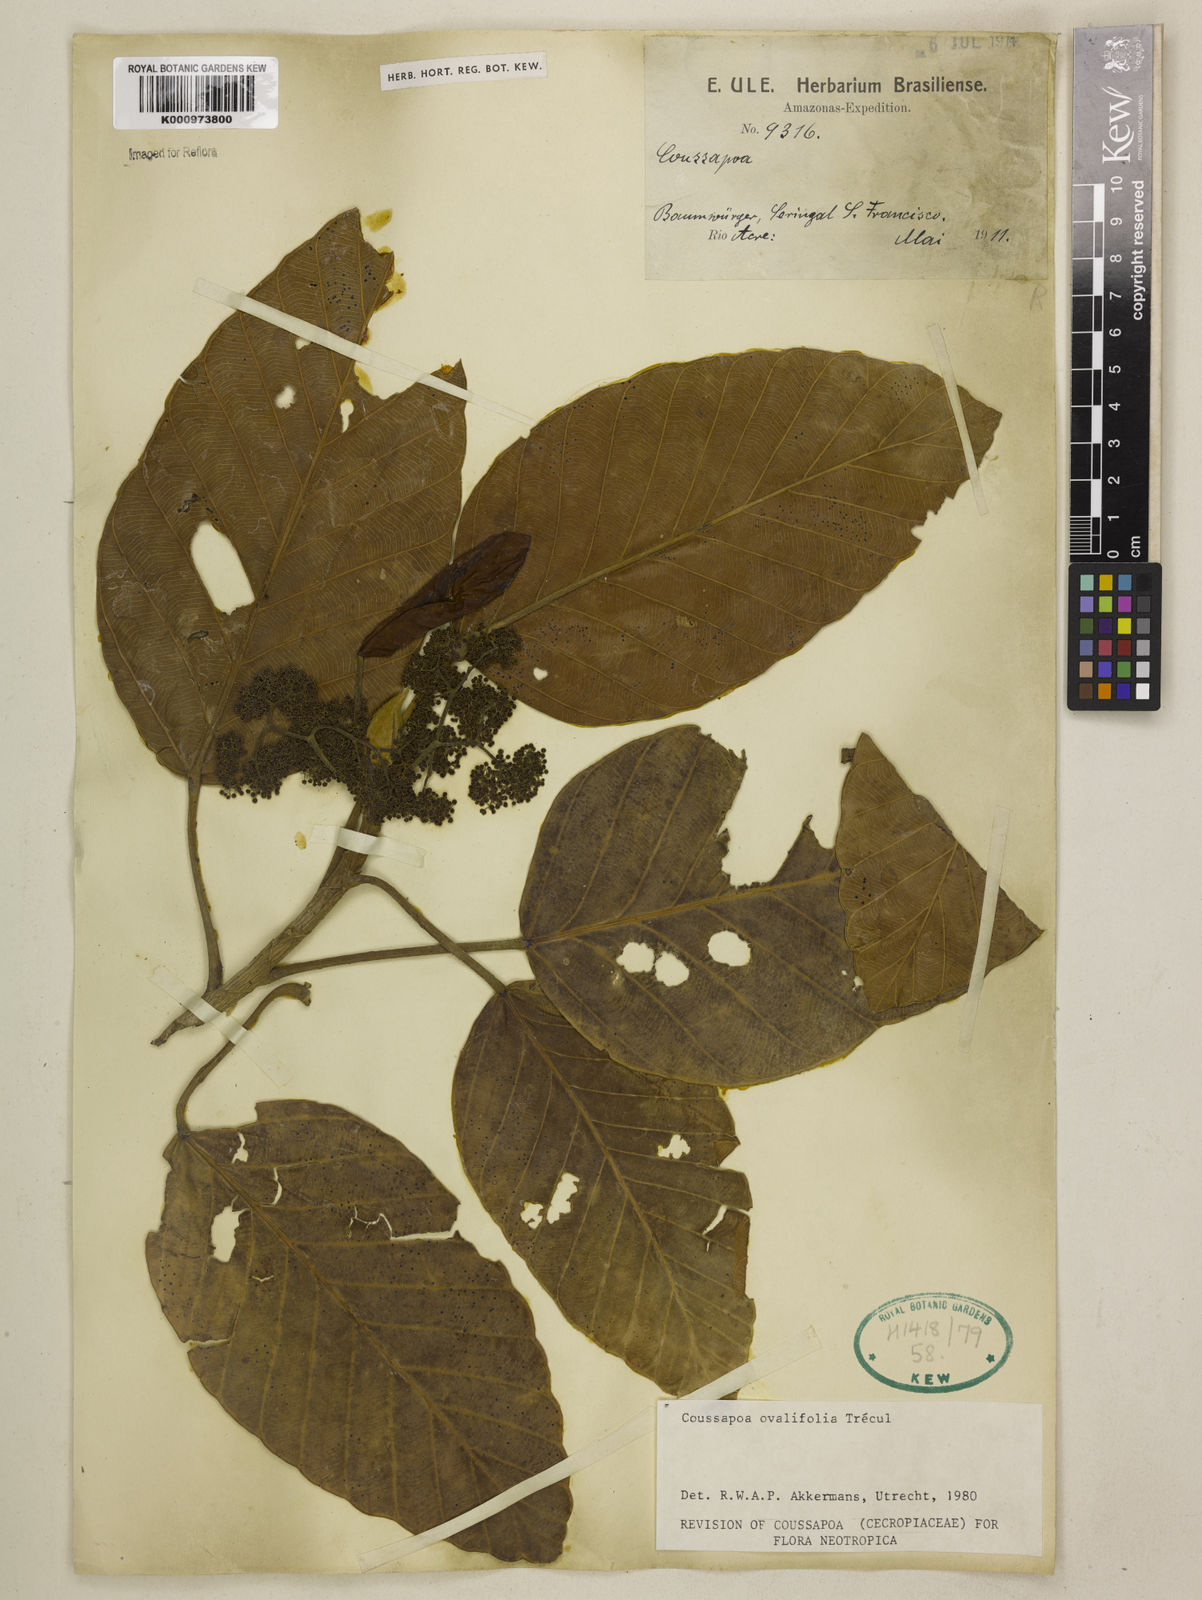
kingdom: Plantae
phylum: Tracheophyta
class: Magnoliopsida
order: Rosales
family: Urticaceae
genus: Coussapoa
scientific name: Coussapoa
